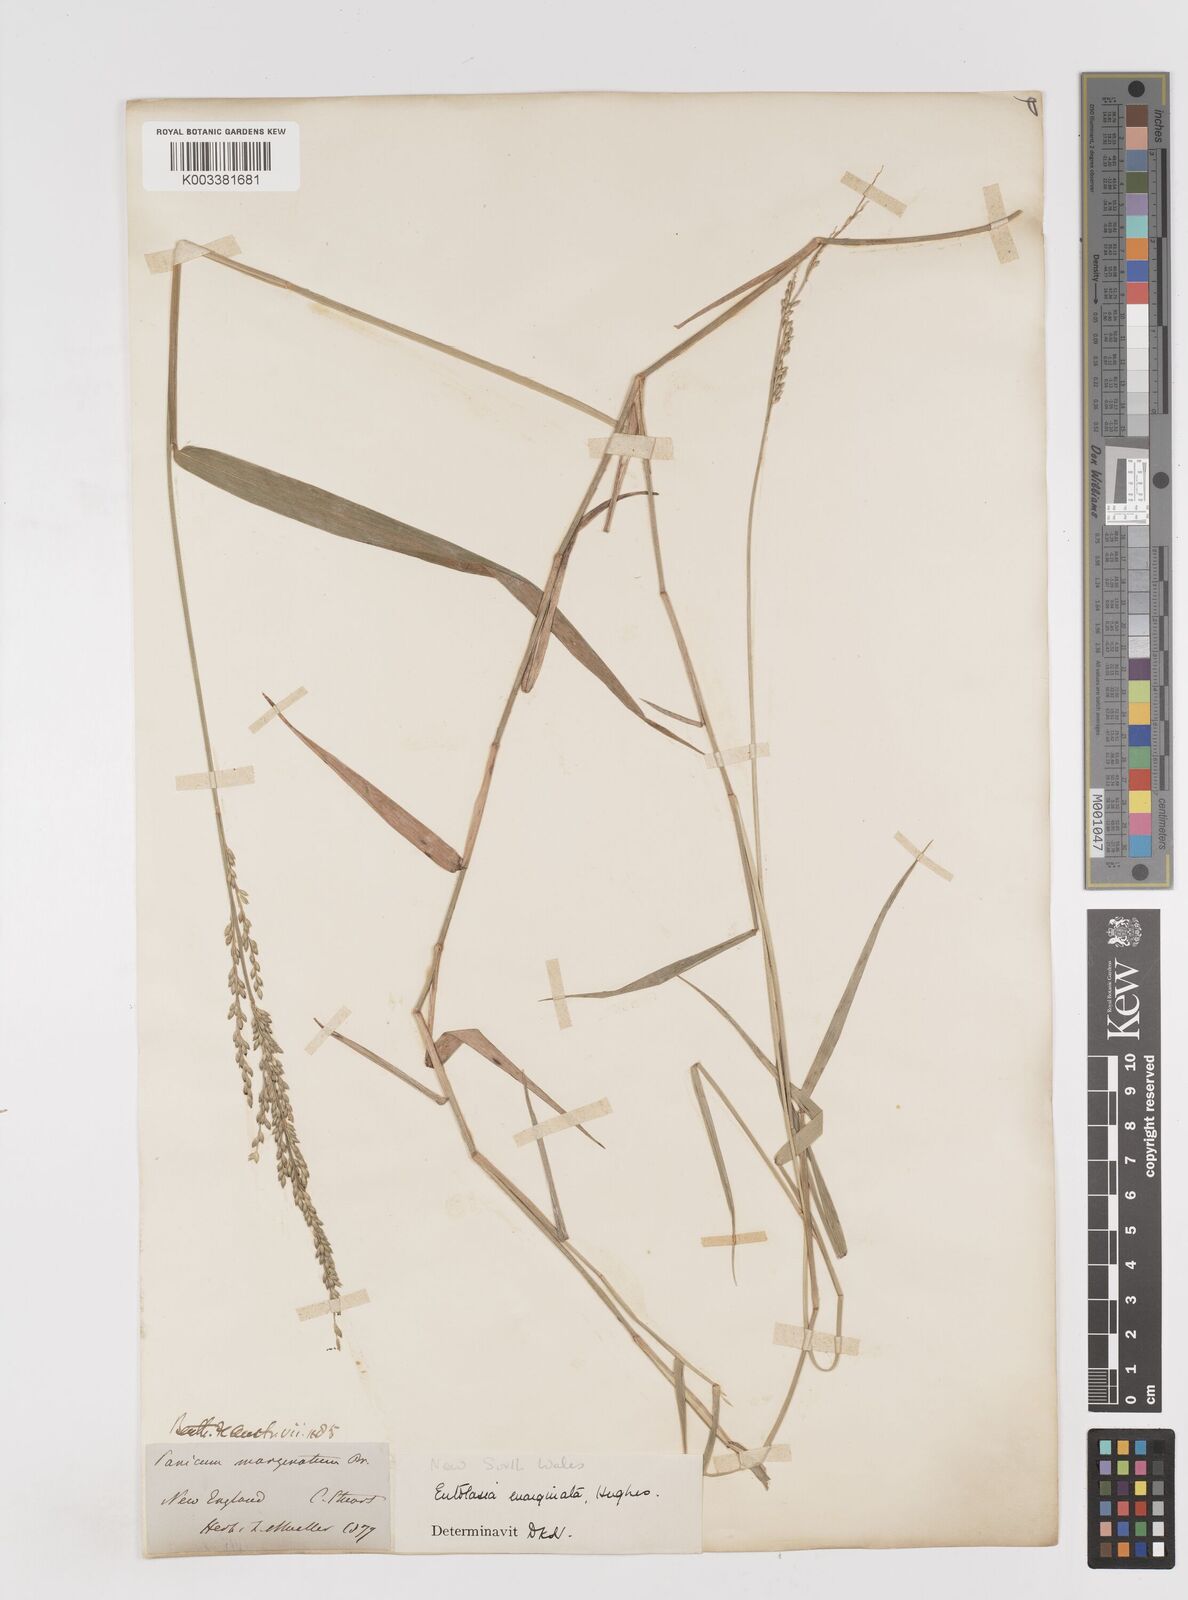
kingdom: Plantae
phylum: Tracheophyta
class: Liliopsida
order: Poales
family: Poaceae
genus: Entolasia
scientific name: Entolasia marginata
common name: Australian panicgrass
